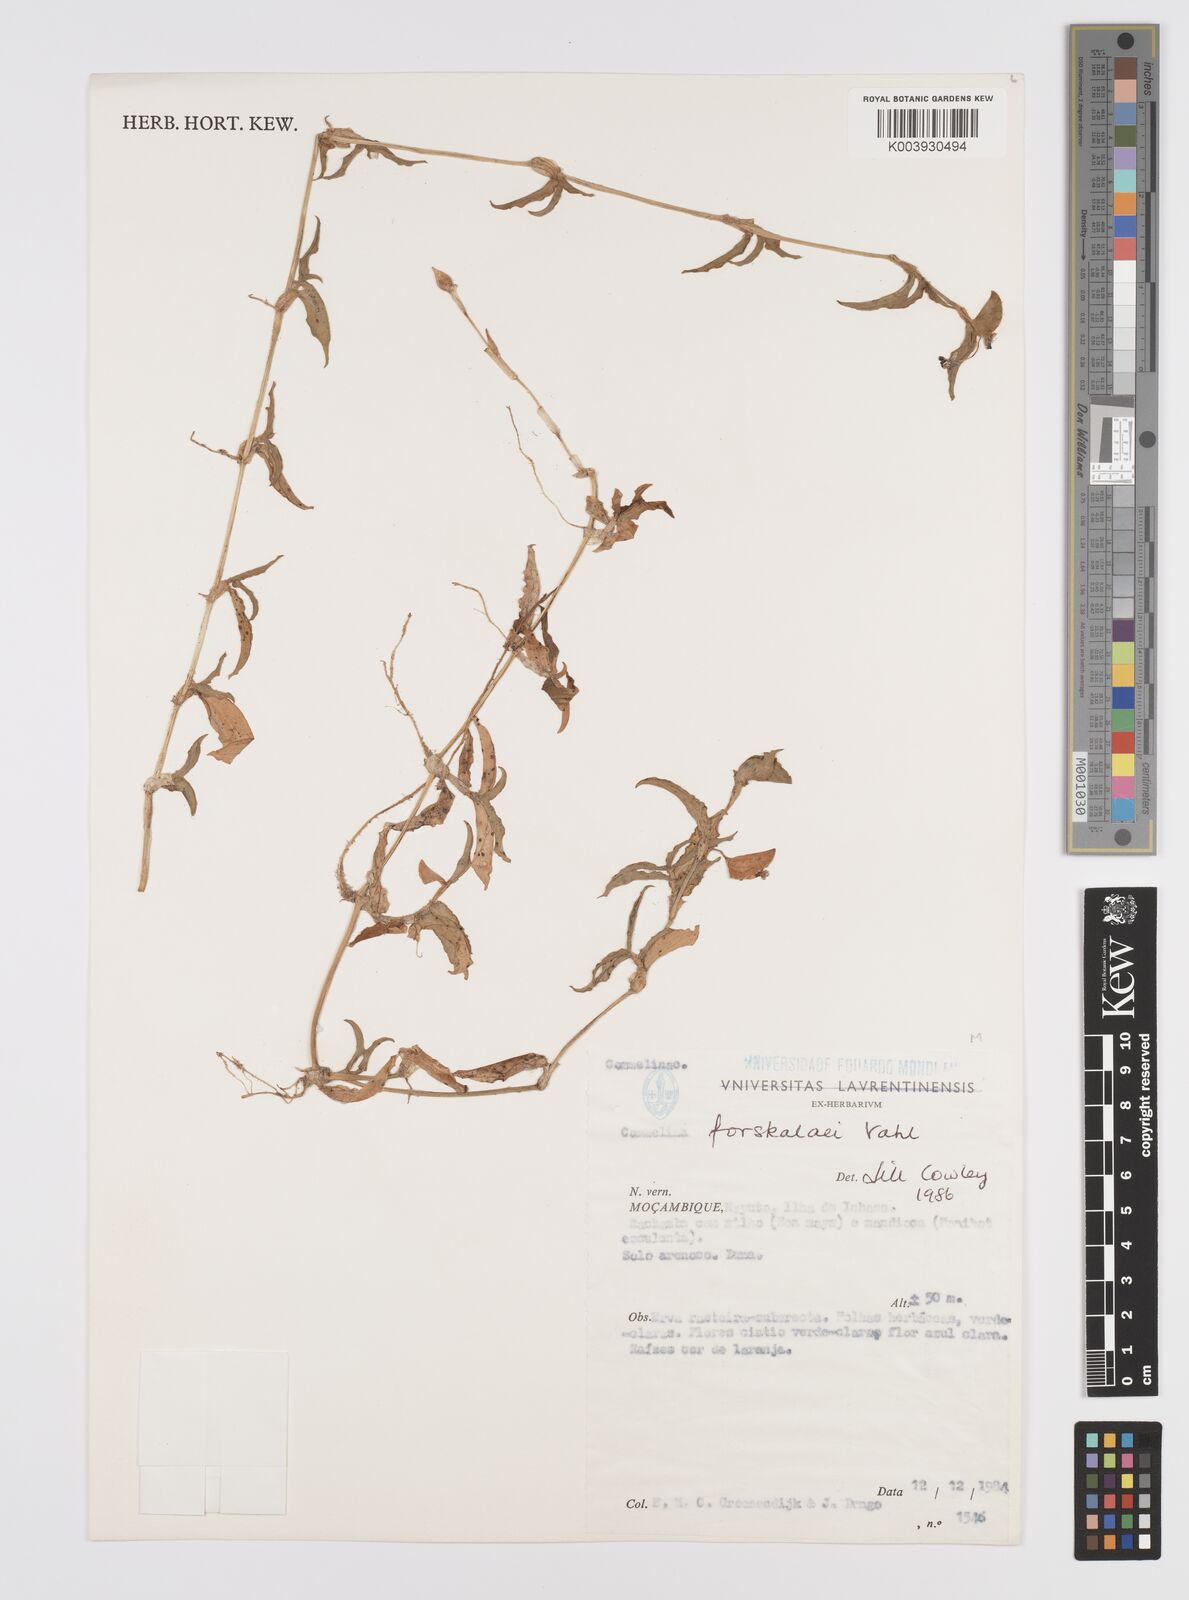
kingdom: Plantae
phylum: Tracheophyta
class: Liliopsida
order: Commelinales
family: Commelinaceae
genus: Commelina
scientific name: Commelina forskaolii
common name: Rat's ear
